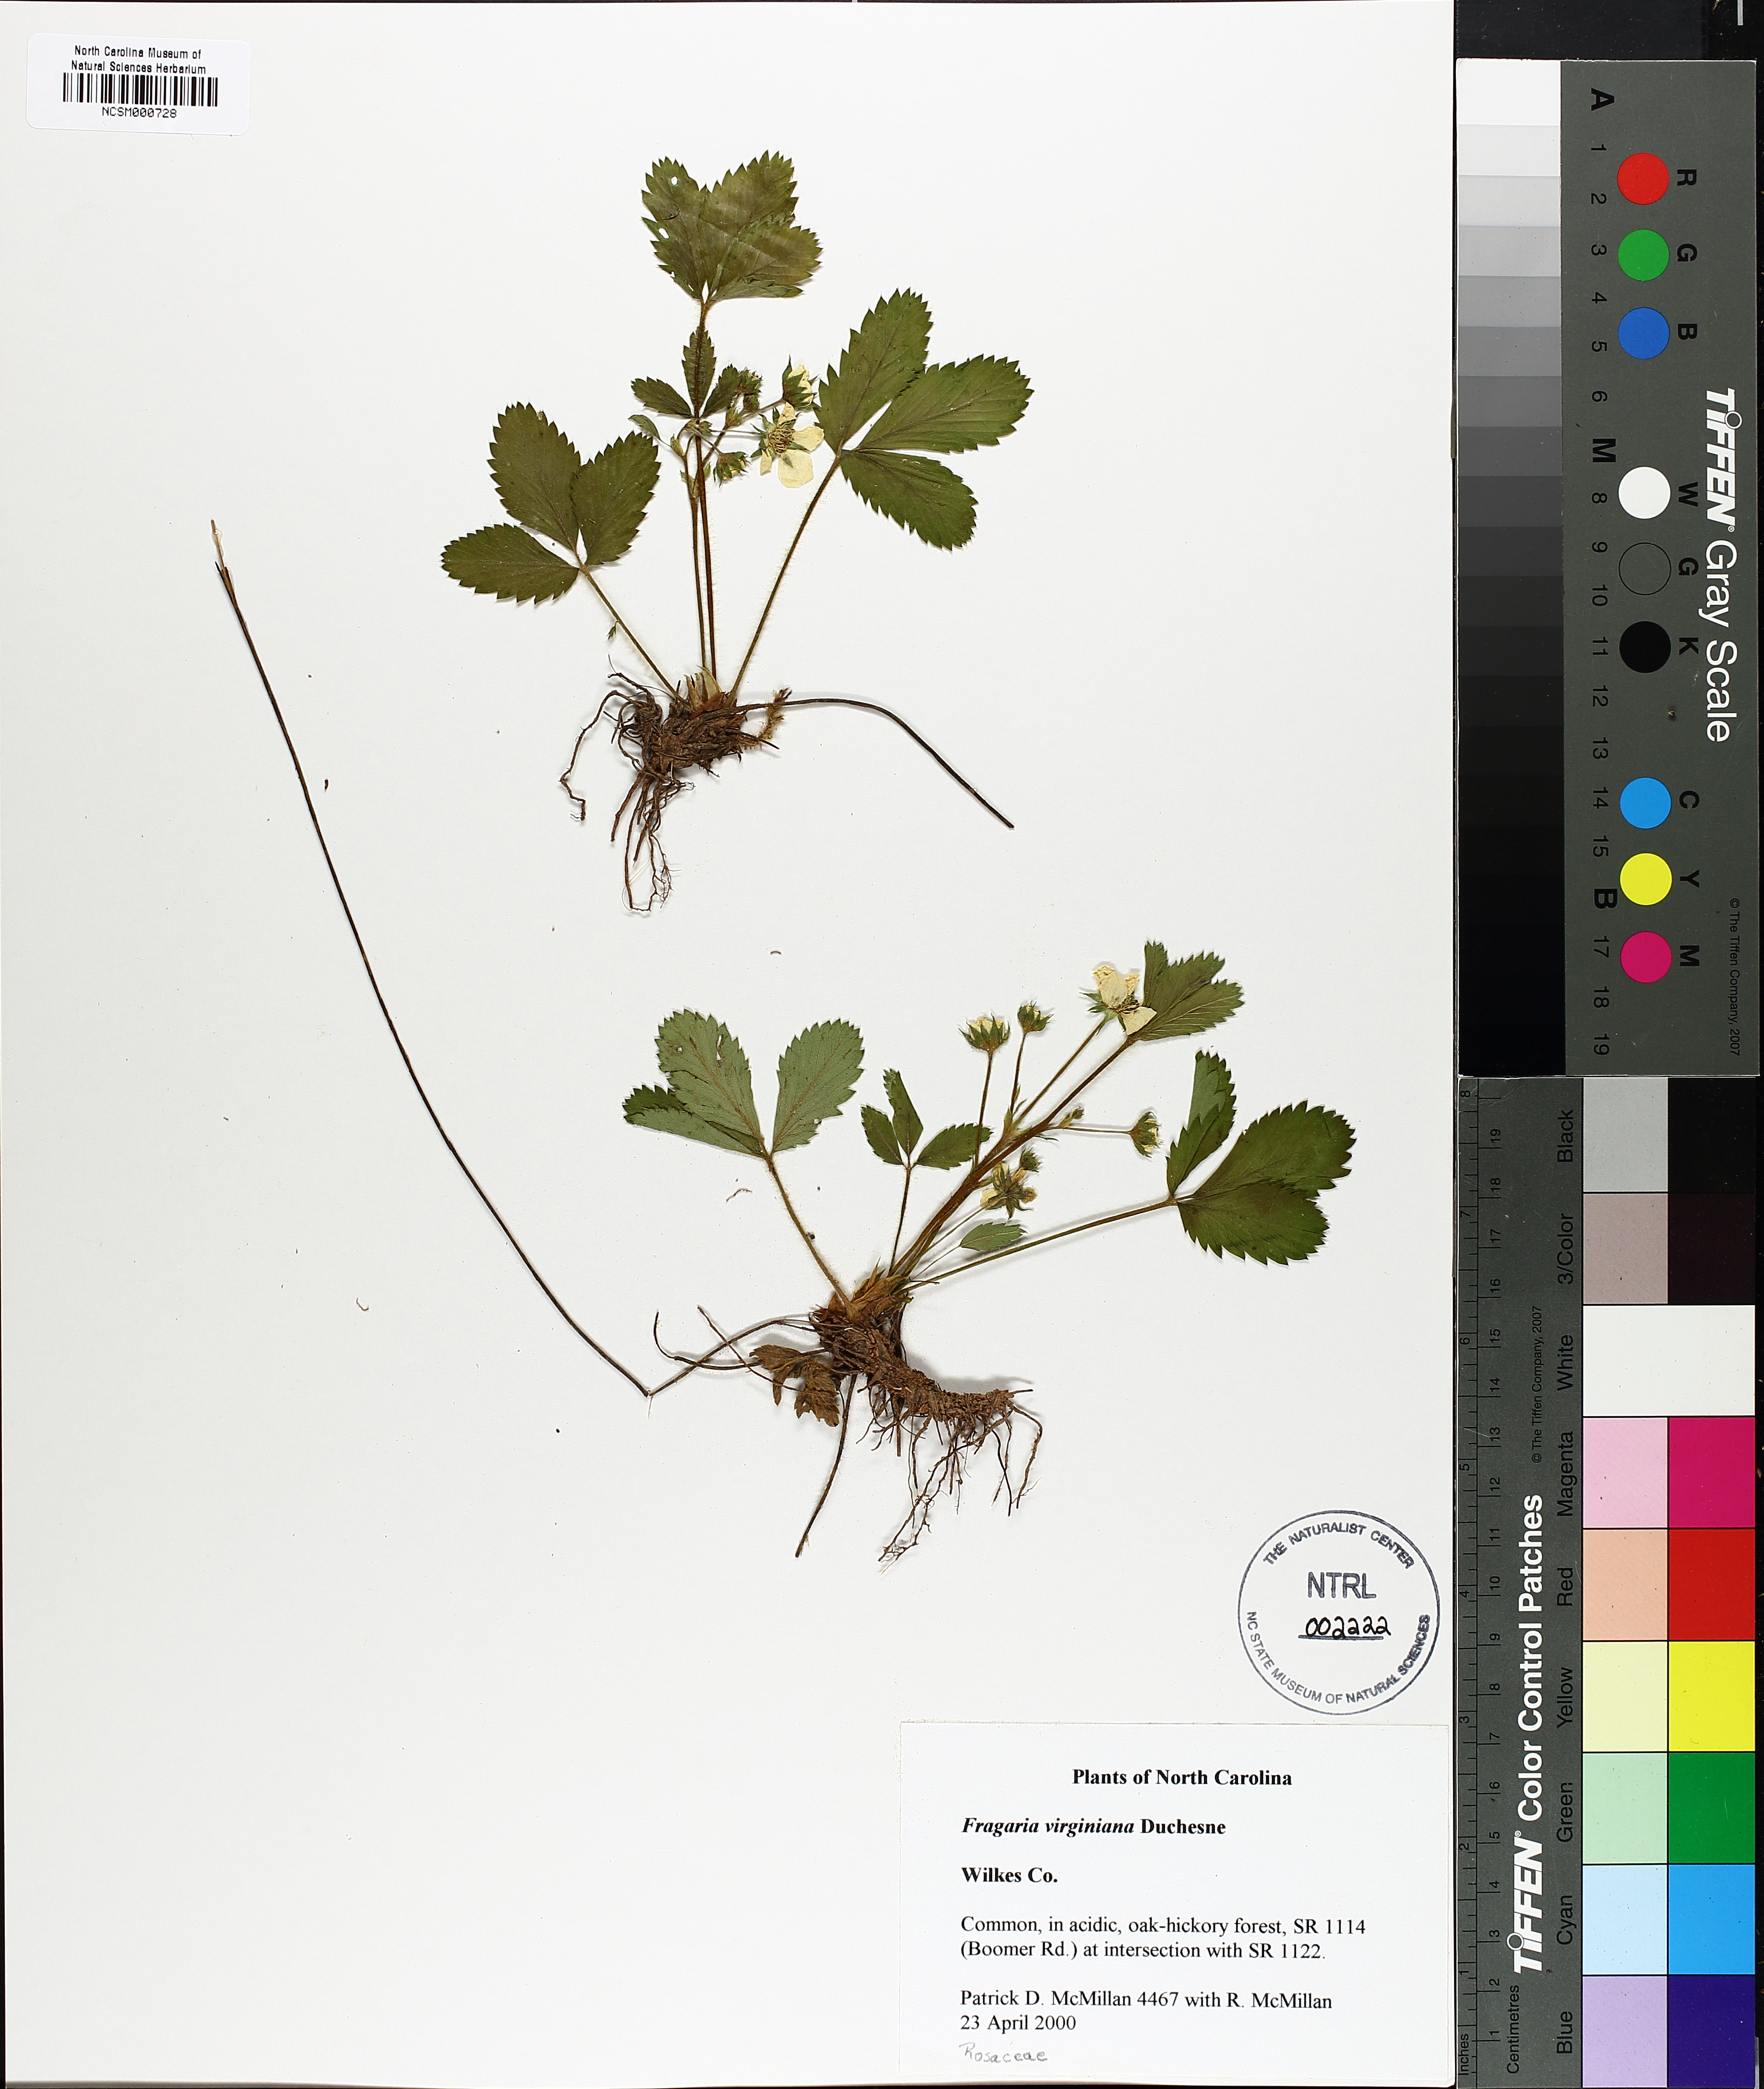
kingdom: Plantae
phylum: Tracheophyta
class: Magnoliopsida
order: Rosales
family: Rosaceae
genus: Fragaria
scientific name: Fragaria virginiana
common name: Thickleaved wild strawberry
